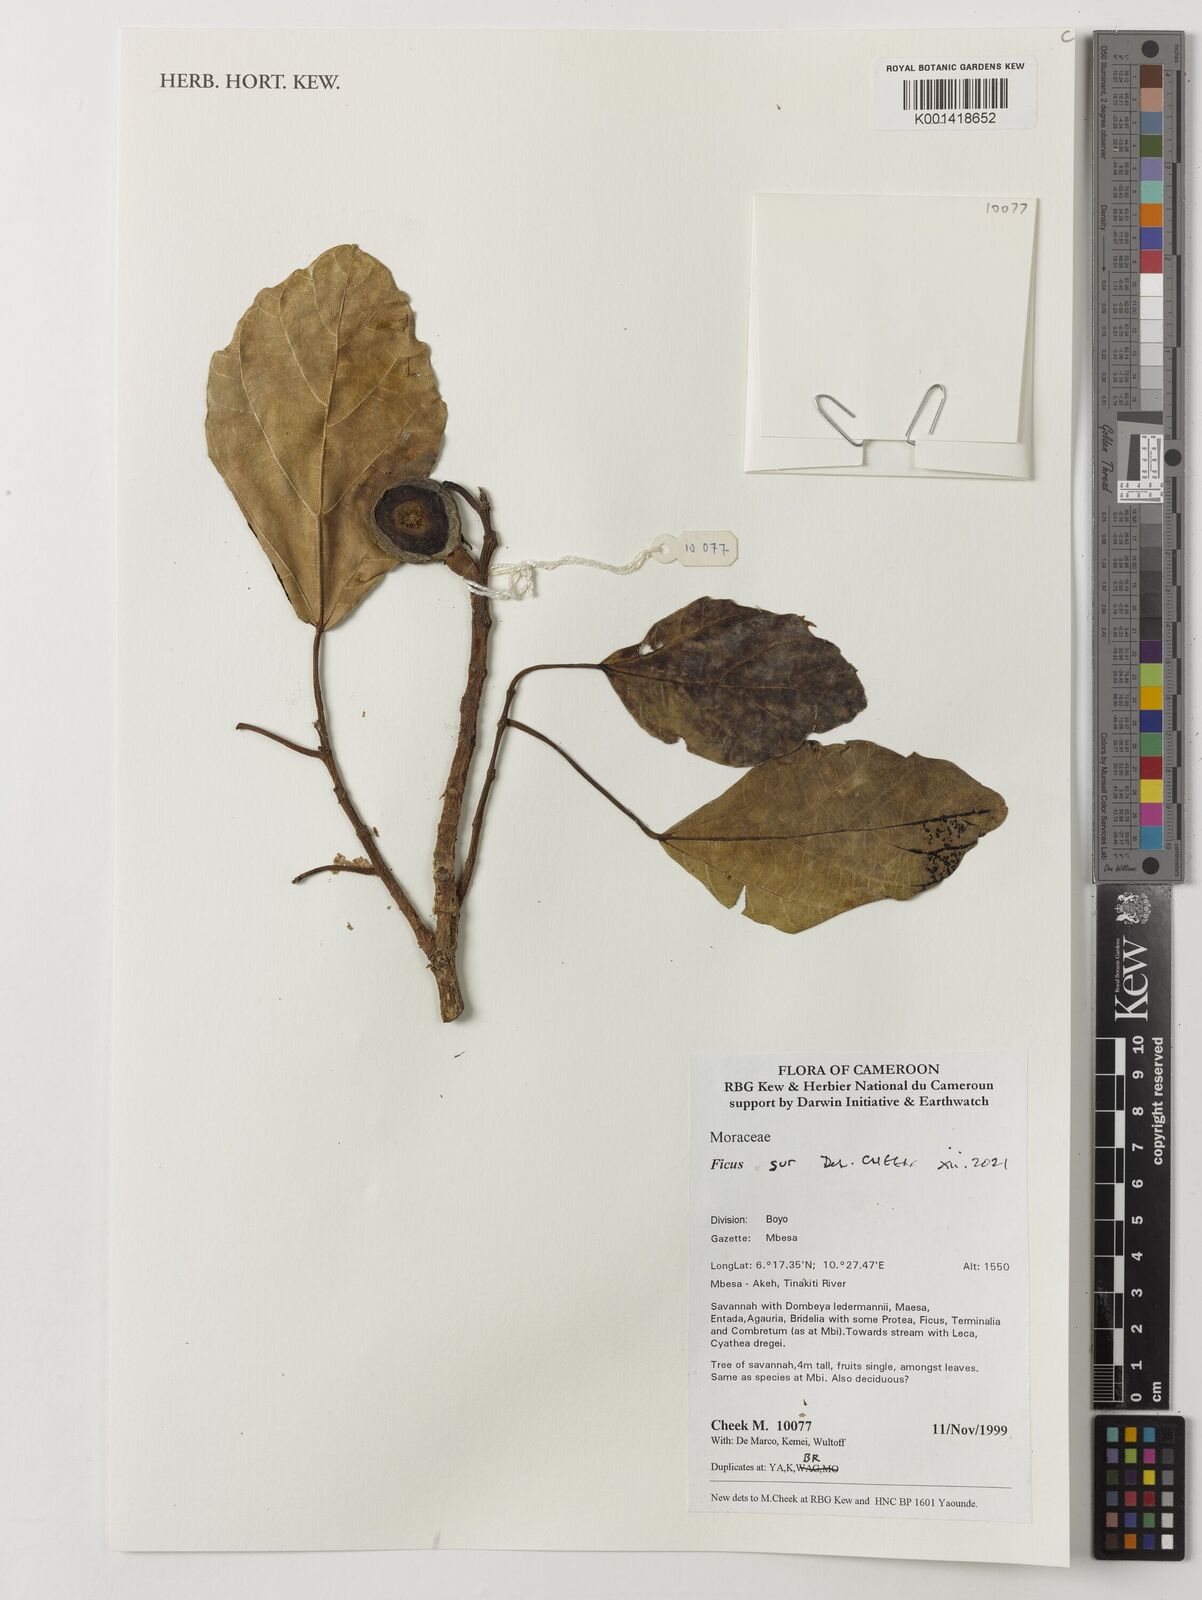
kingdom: Plantae
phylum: Tracheophyta
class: Magnoliopsida
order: Rosales
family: Moraceae
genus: Ficus
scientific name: Ficus sur
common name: Cape fig
